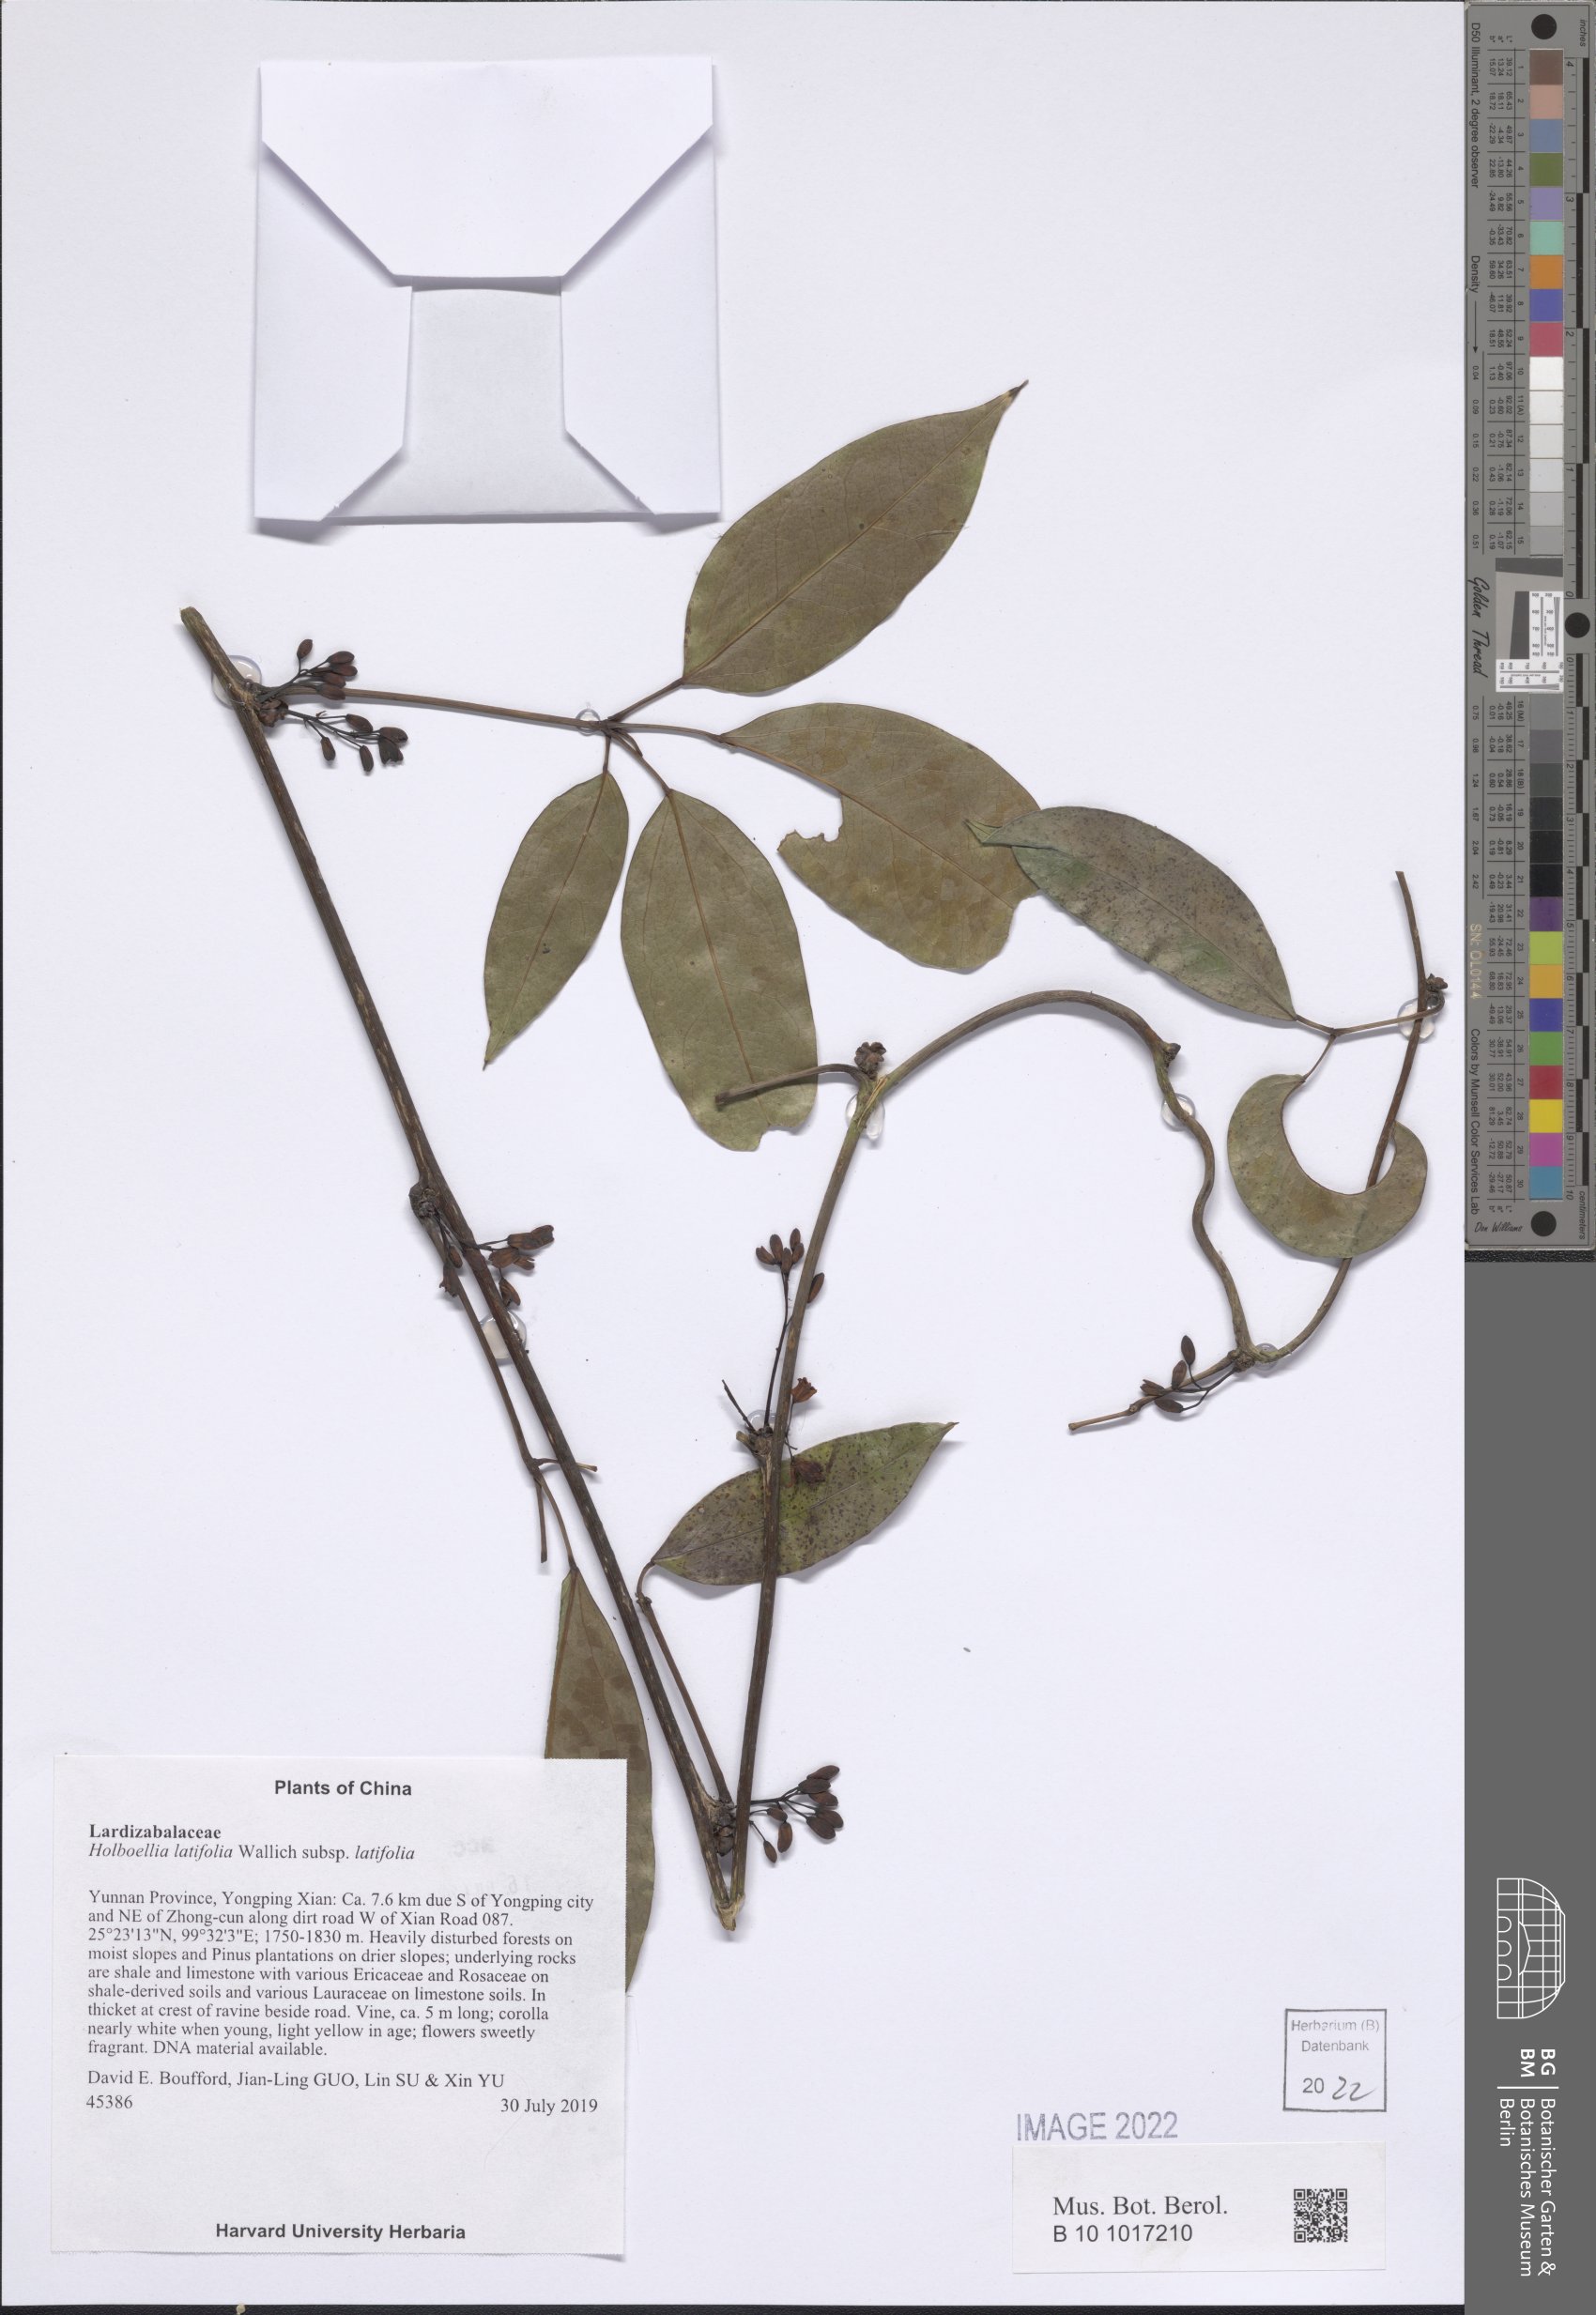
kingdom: Plantae
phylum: Tracheophyta
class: Magnoliopsida
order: Ranunculales
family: Lardizabalaceae
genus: Stauntonia
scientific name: Stauntonia latifolia
